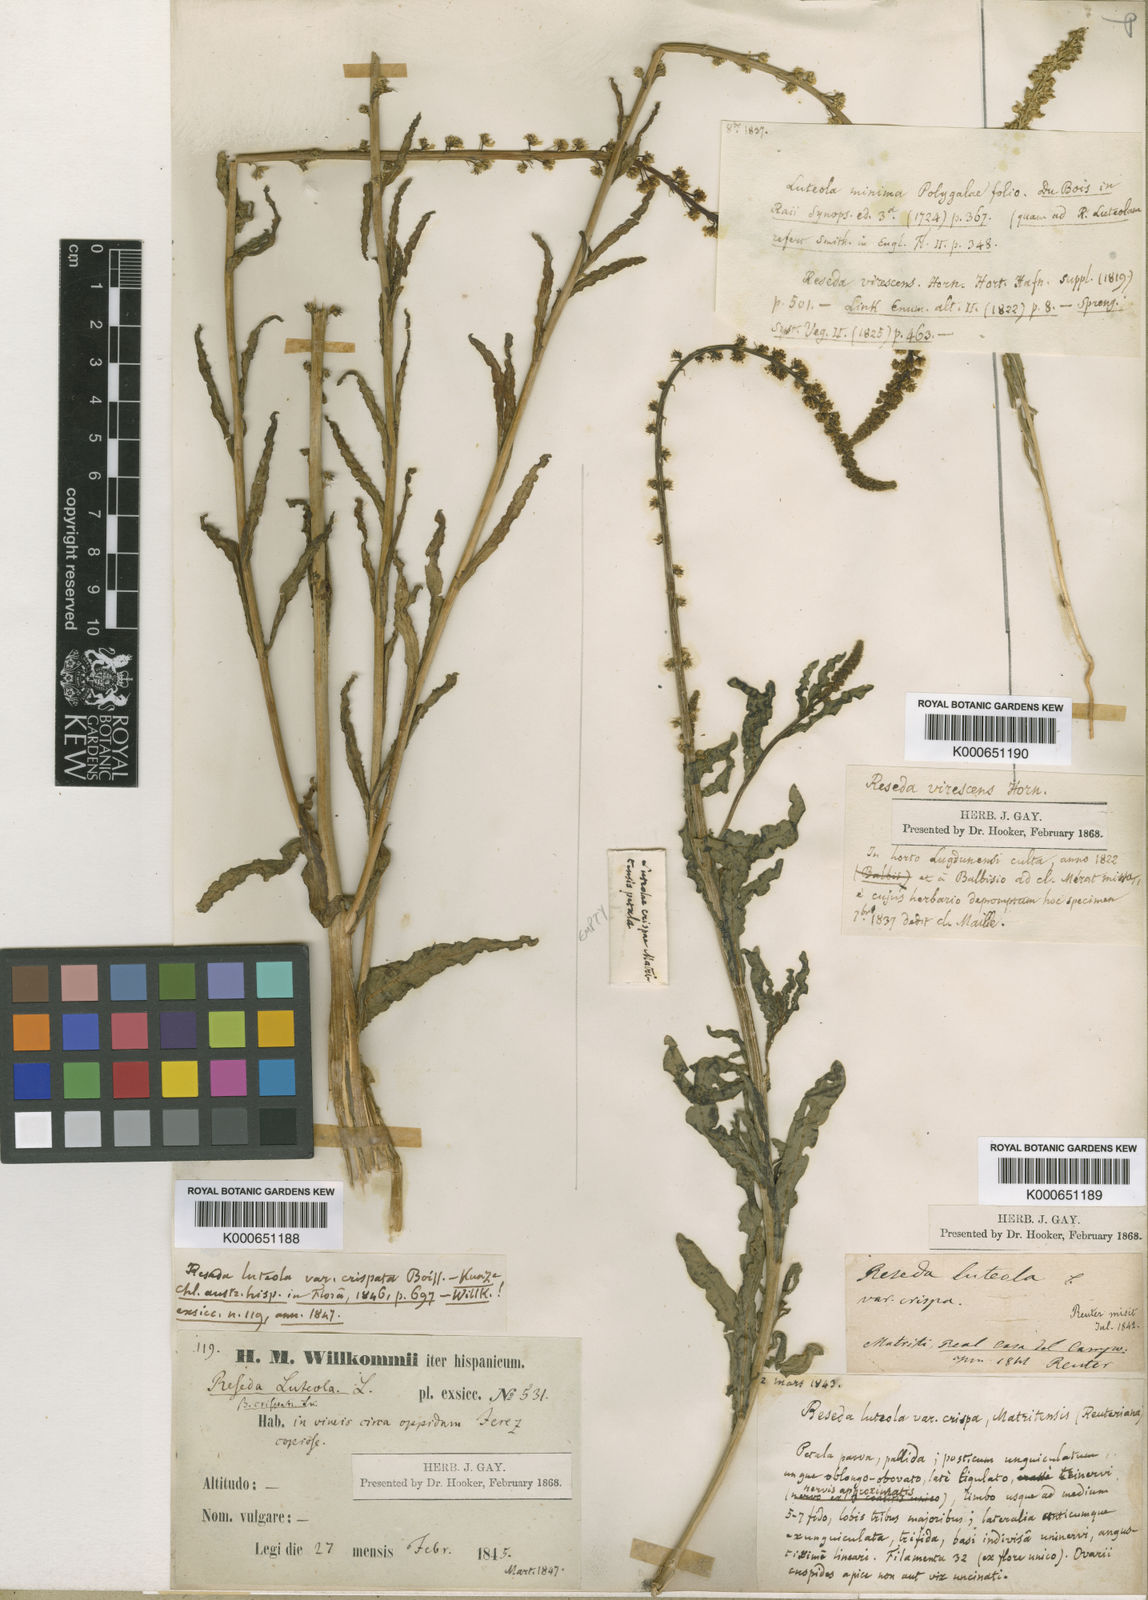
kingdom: Plantae
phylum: Tracheophyta
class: Magnoliopsida
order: Brassicales
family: Resedaceae
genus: Reseda
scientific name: Reseda luteola
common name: Weld
